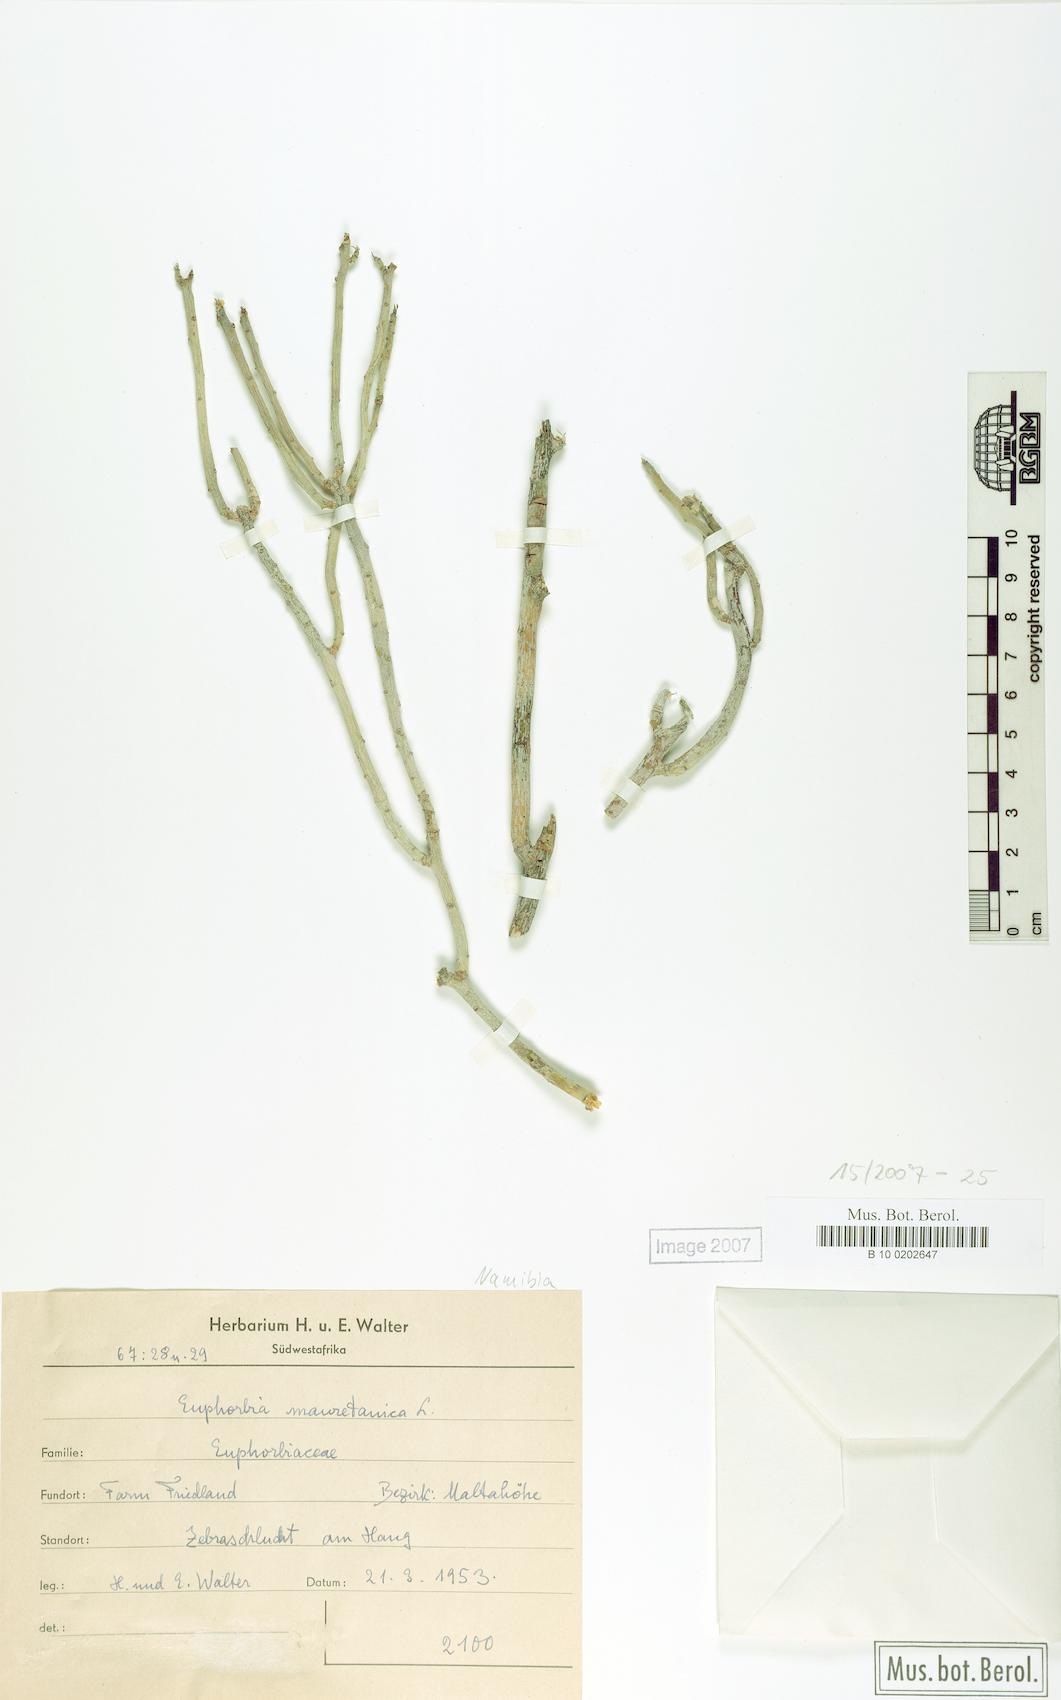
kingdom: Plantae
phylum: Tracheophyta
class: Magnoliopsida
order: Malpighiales
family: Euphorbiaceae
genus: Euphorbia
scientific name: Euphorbia mauritanica
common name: Jackal's-food
